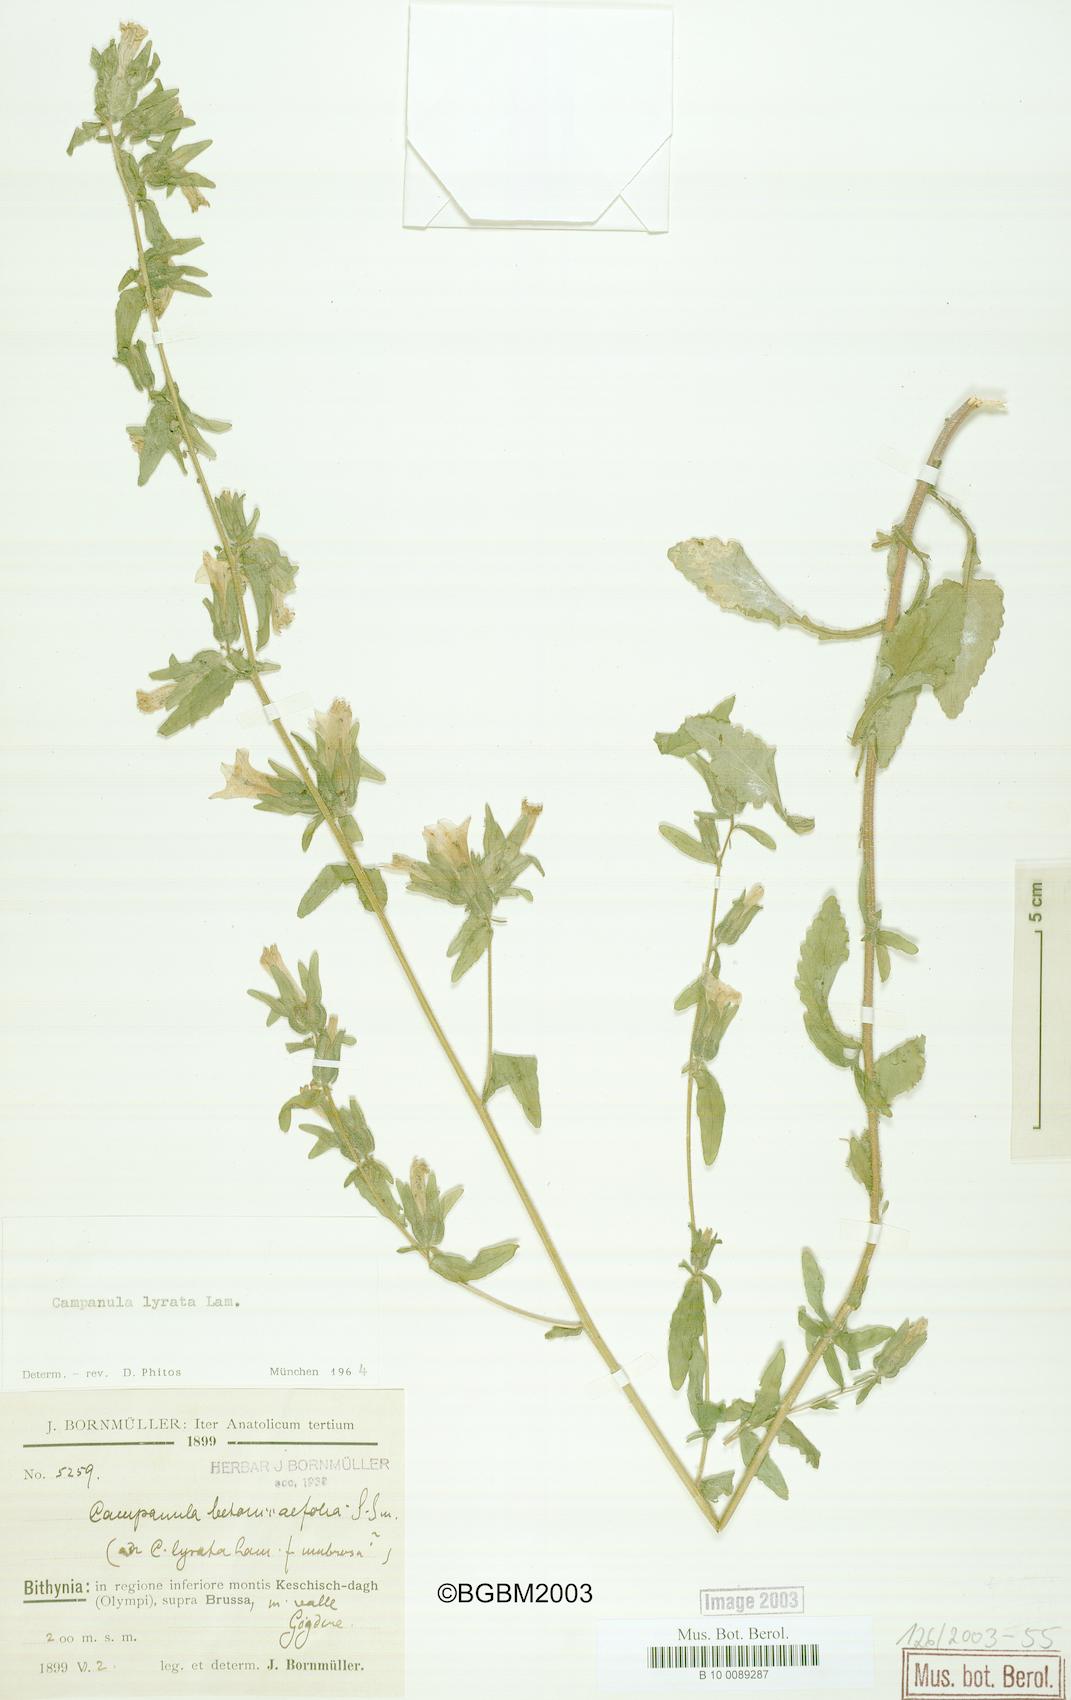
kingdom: Plantae
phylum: Tracheophyta
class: Magnoliopsida
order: Asterales
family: Campanulaceae
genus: Campanula
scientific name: Campanula lyrata
